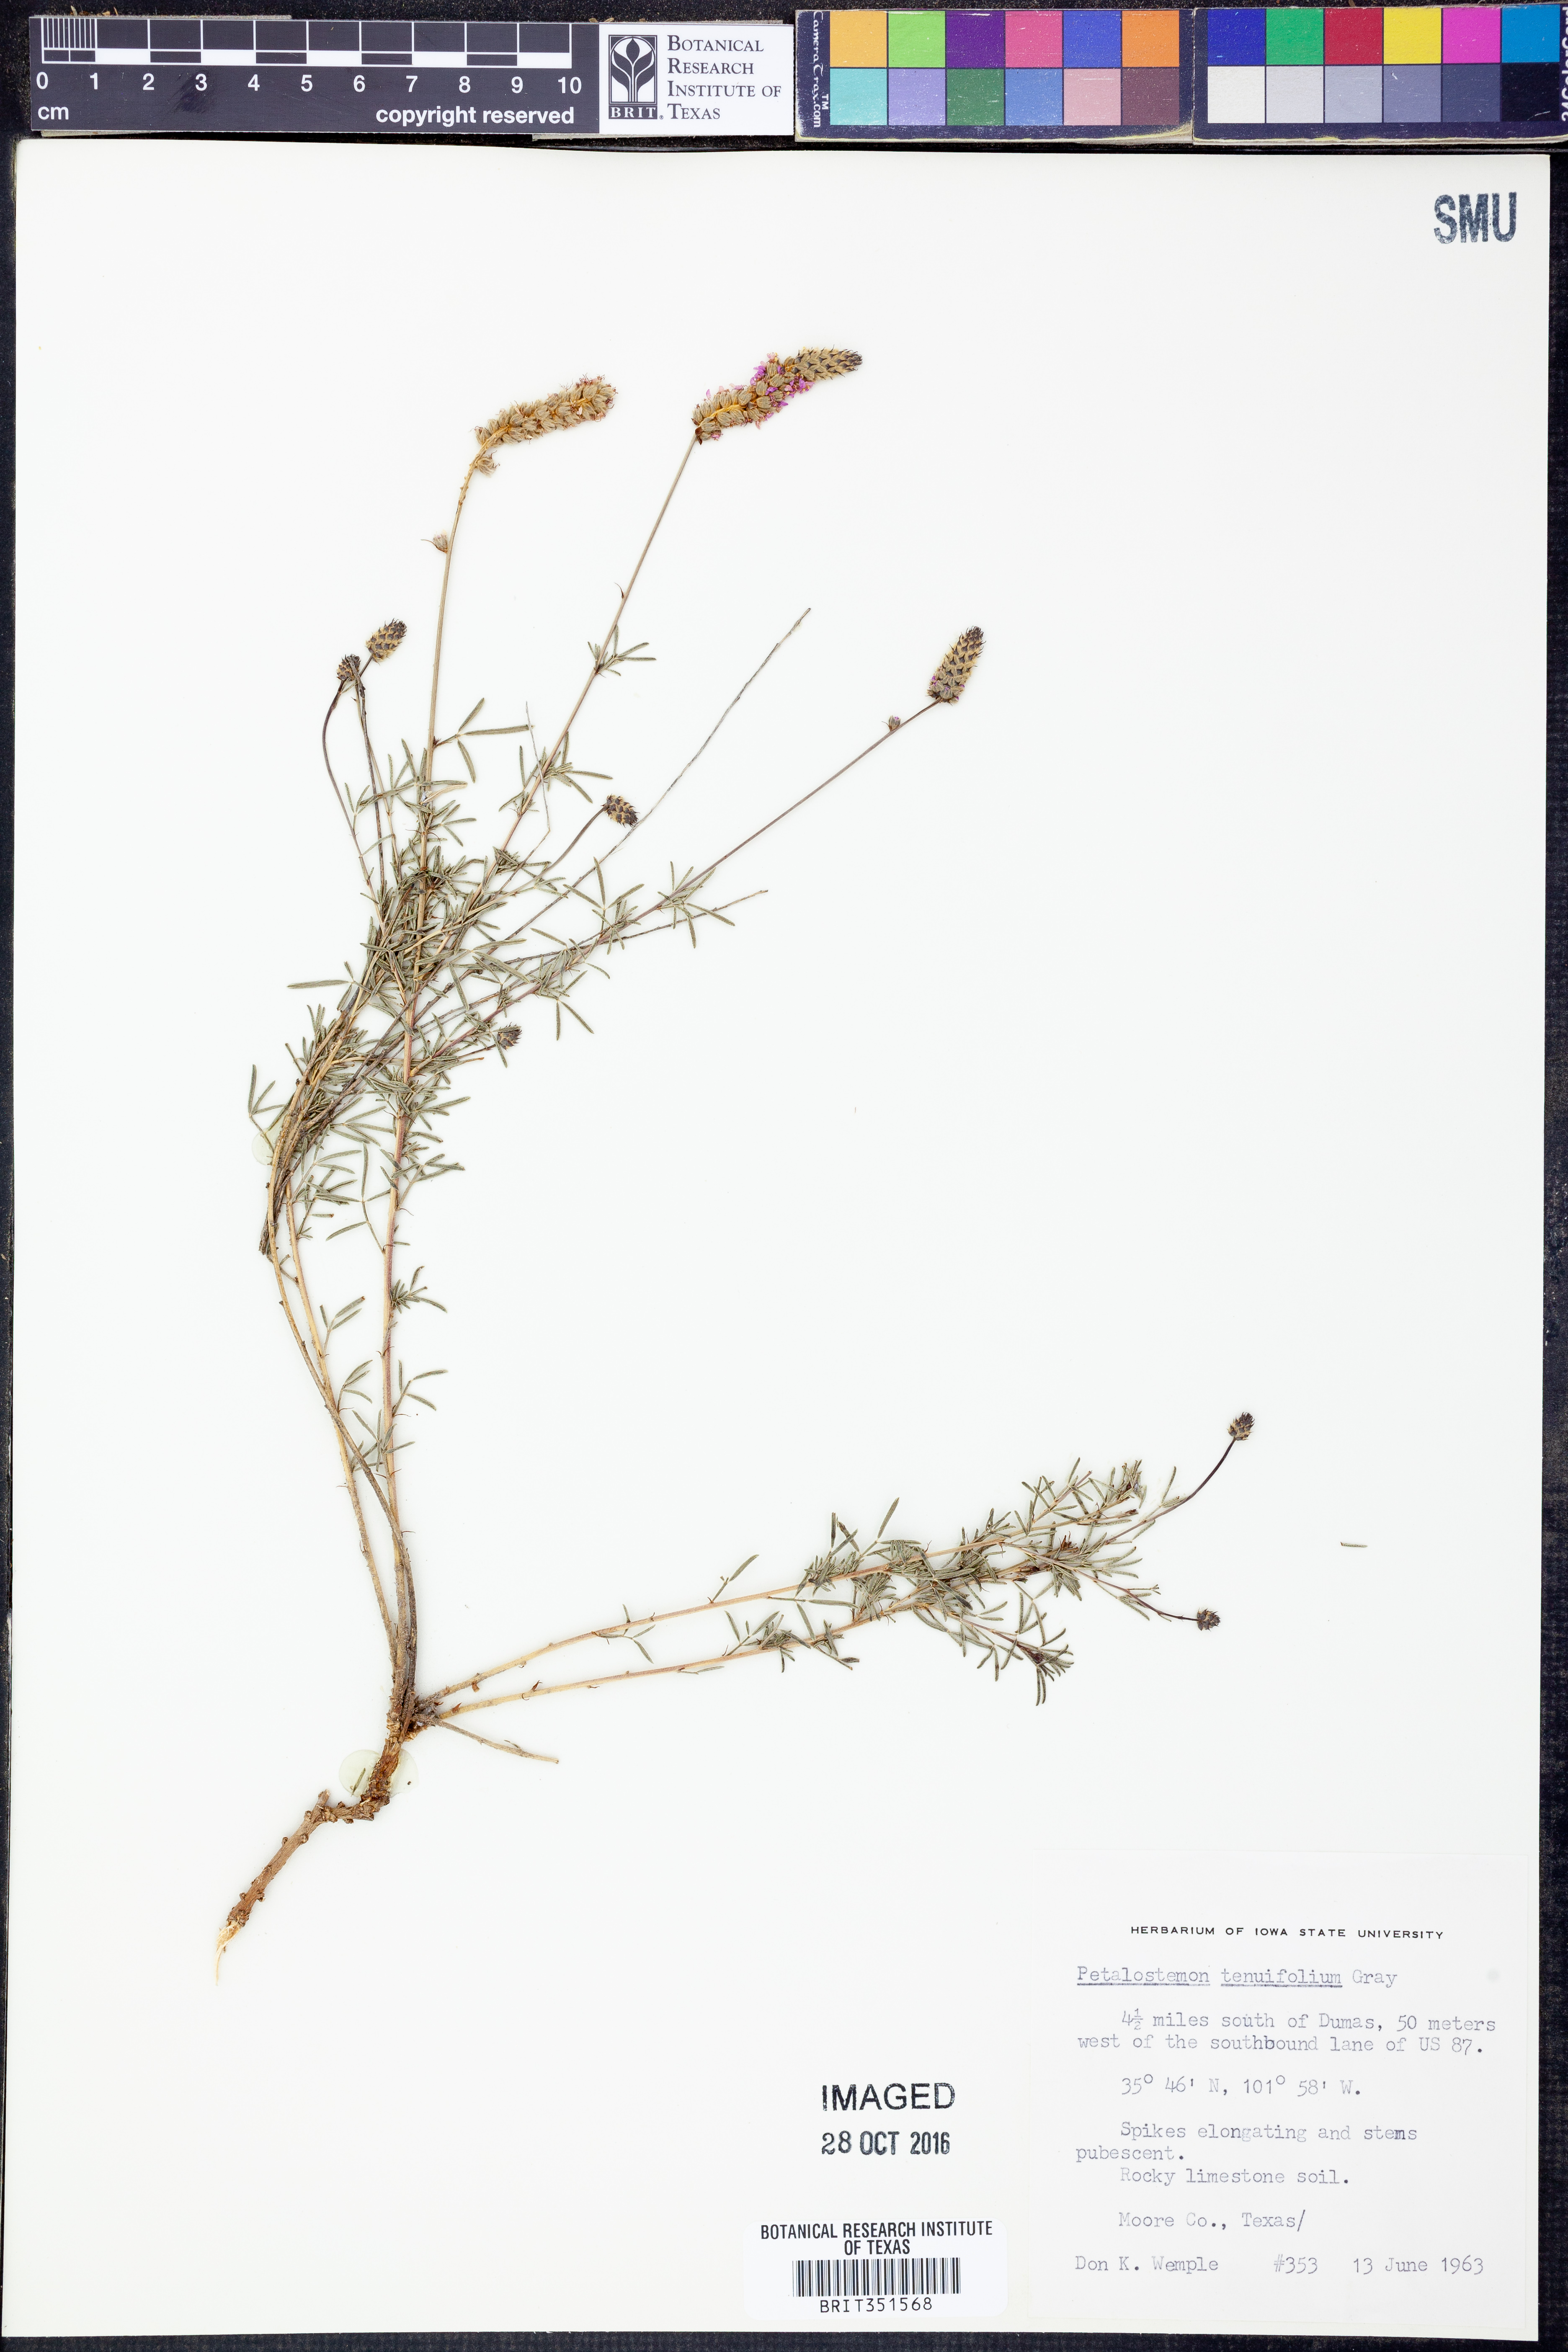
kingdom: Plantae
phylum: Tracheophyta
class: Magnoliopsida
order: Fabales
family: Fabaceae
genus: Dalea
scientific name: Dalea tenuifolia
